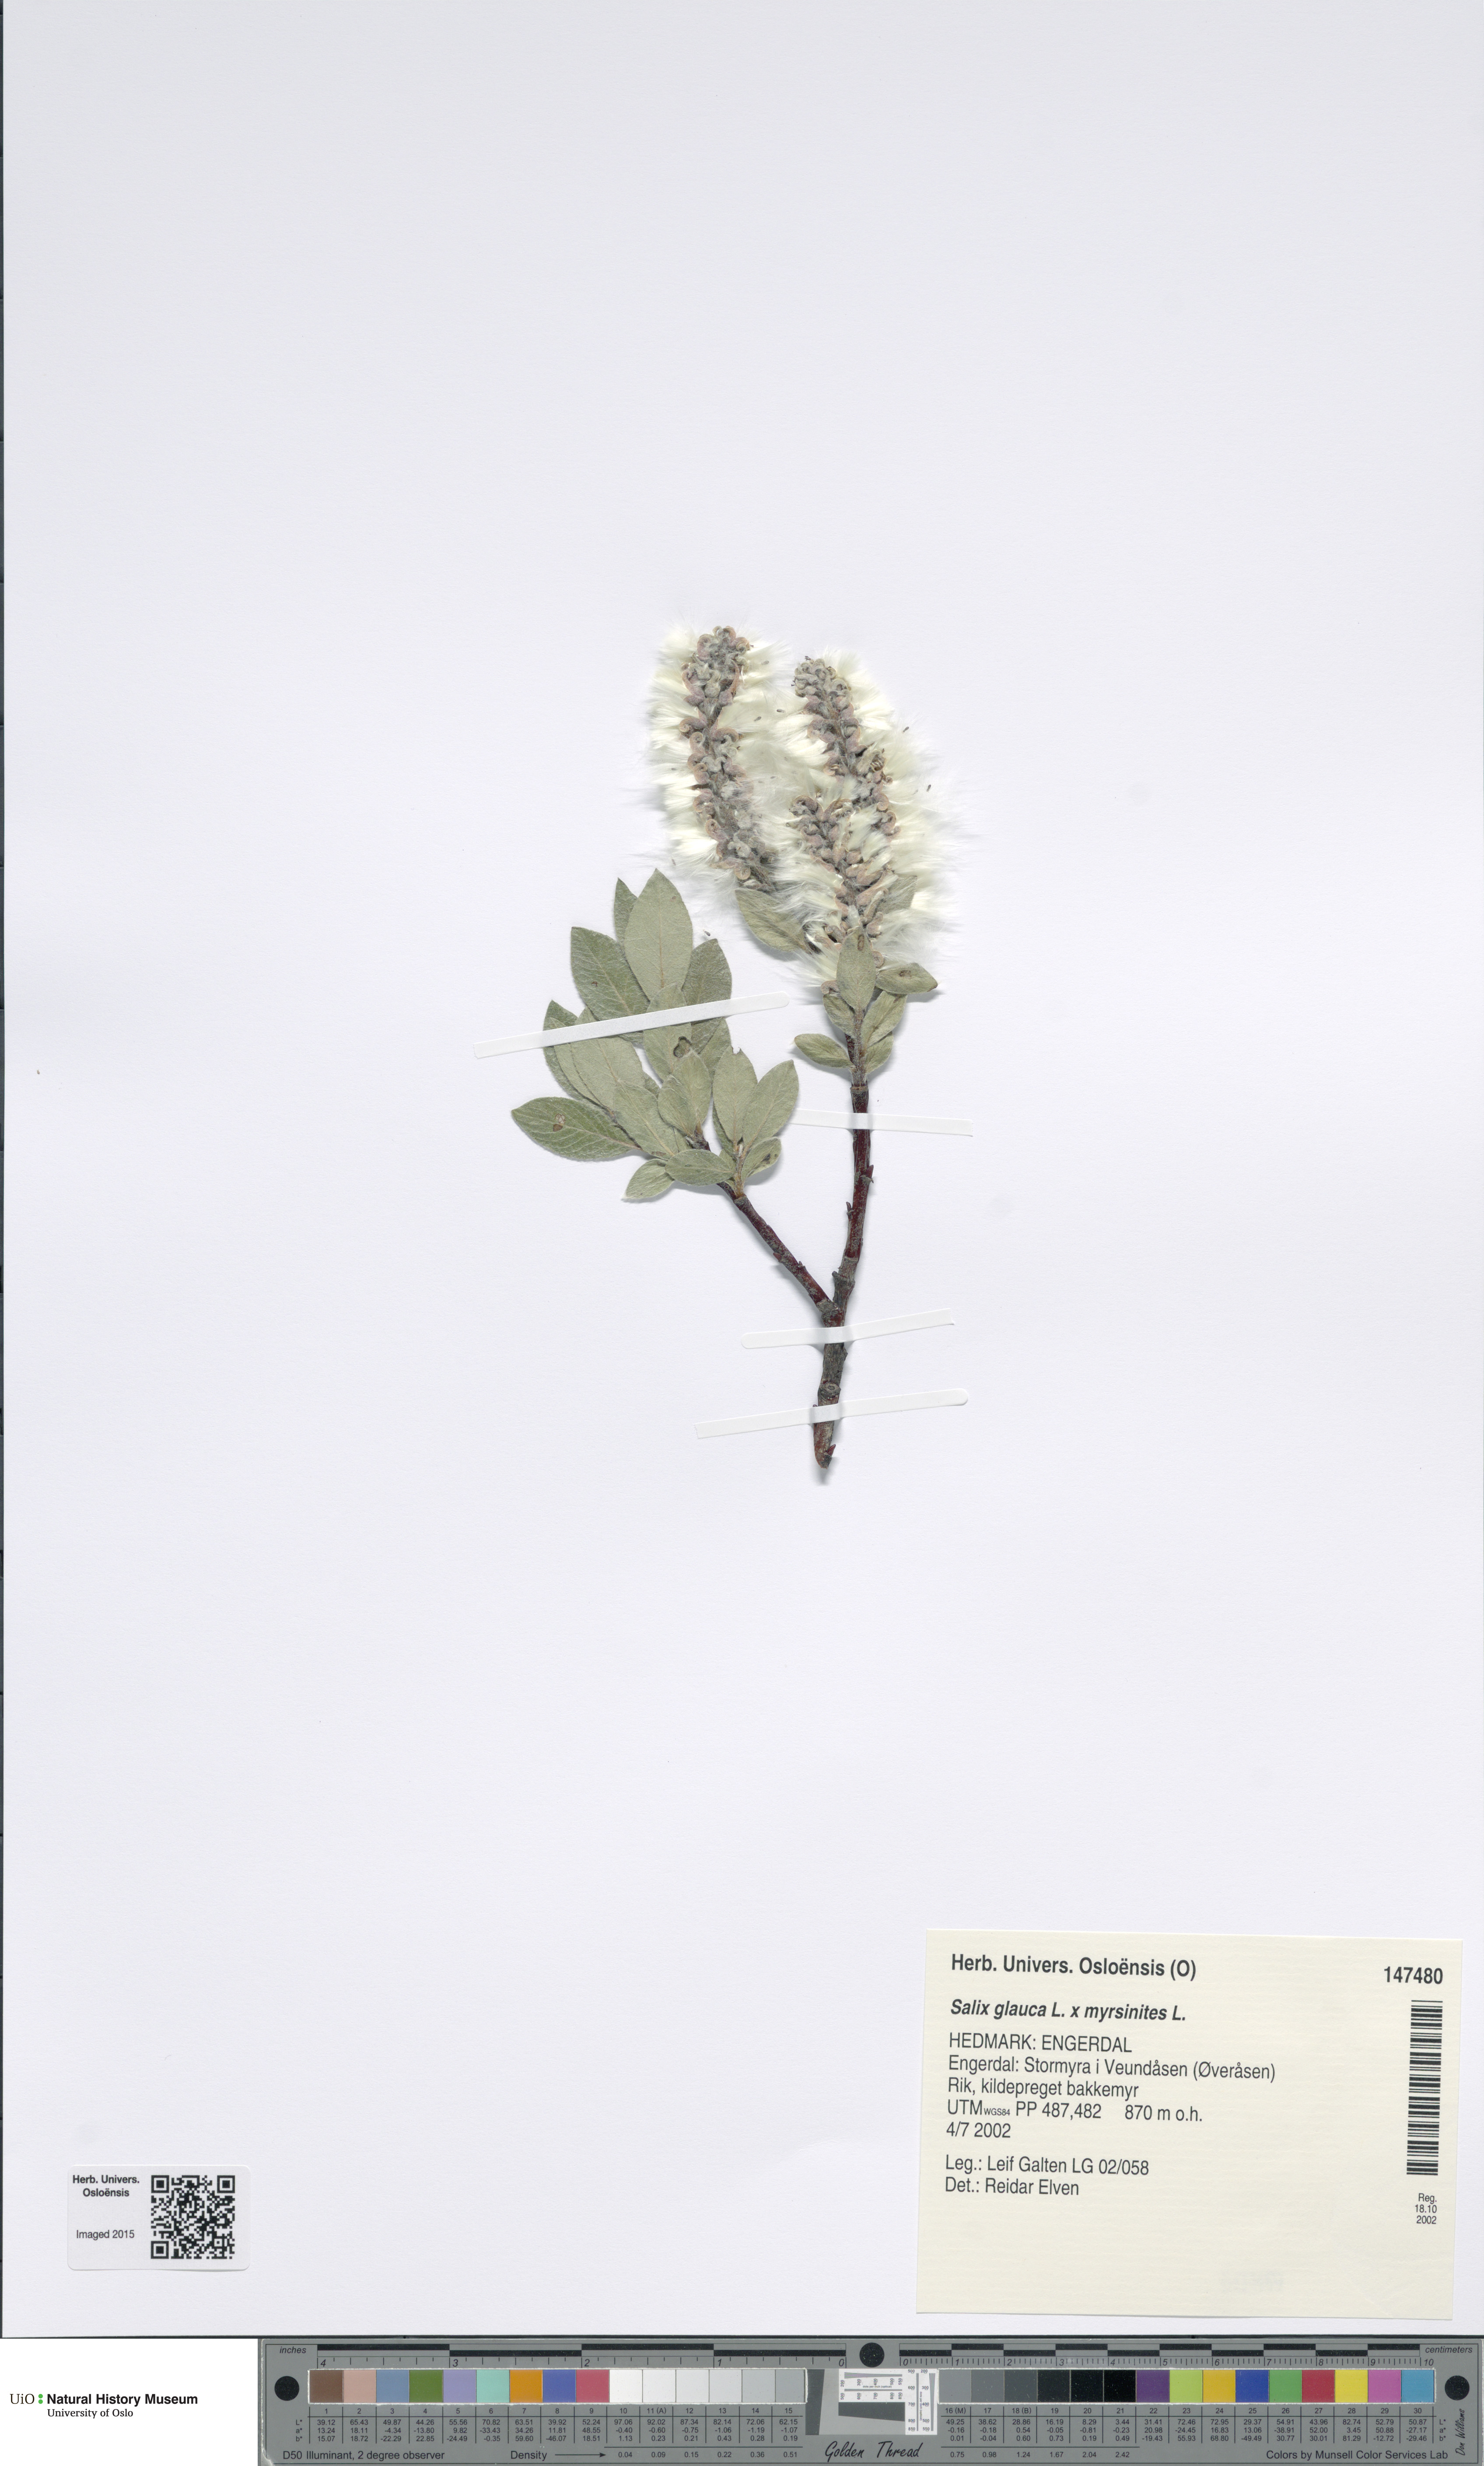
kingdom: Plantae
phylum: Tracheophyta
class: Magnoliopsida
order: Malpighiales
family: Salicaceae
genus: Salix
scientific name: Salix
